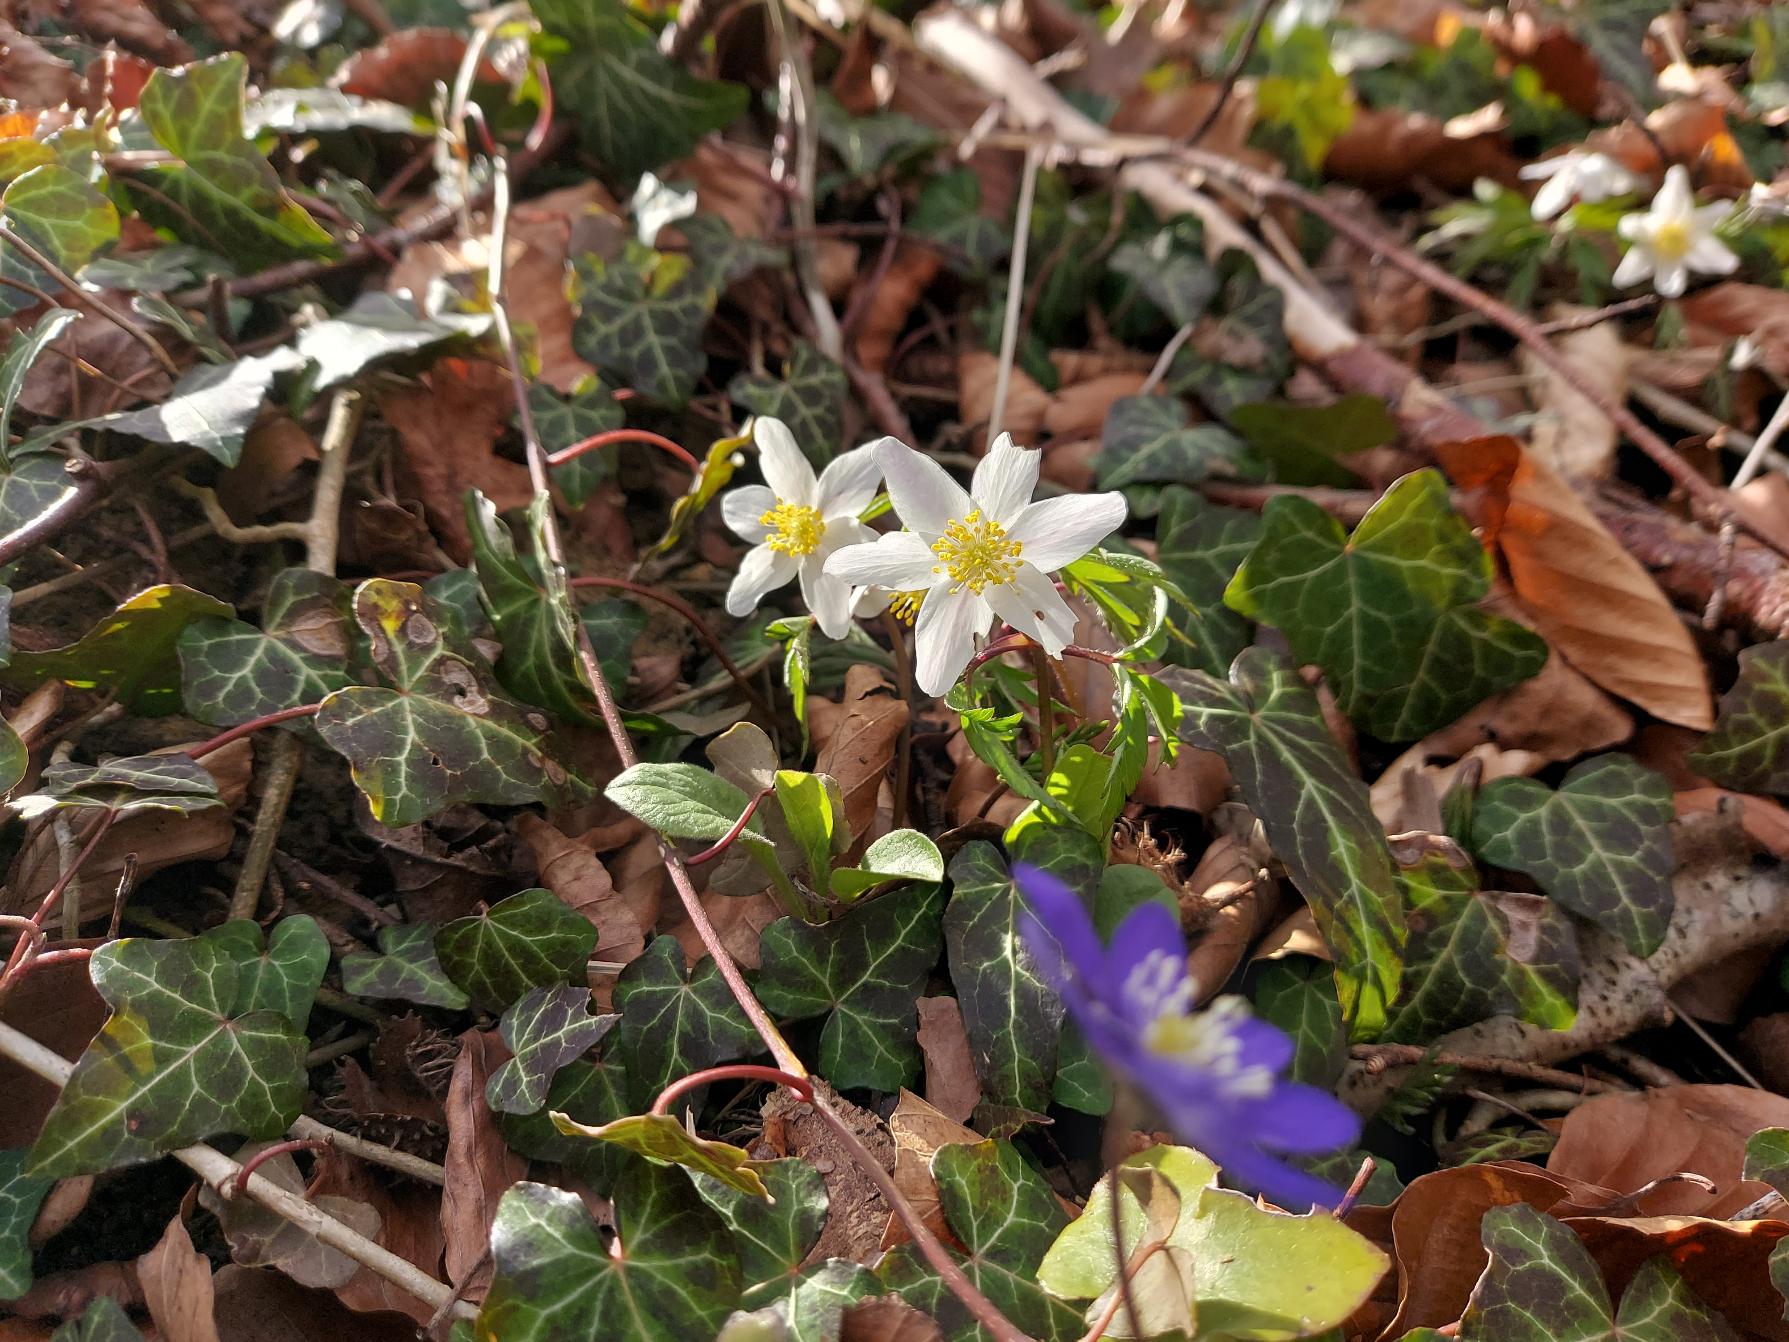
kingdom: Plantae
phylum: Tracheophyta
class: Magnoliopsida
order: Ranunculales
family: Ranunculaceae
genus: Anemone
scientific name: Anemone nemorosa
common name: Hvid anemone
